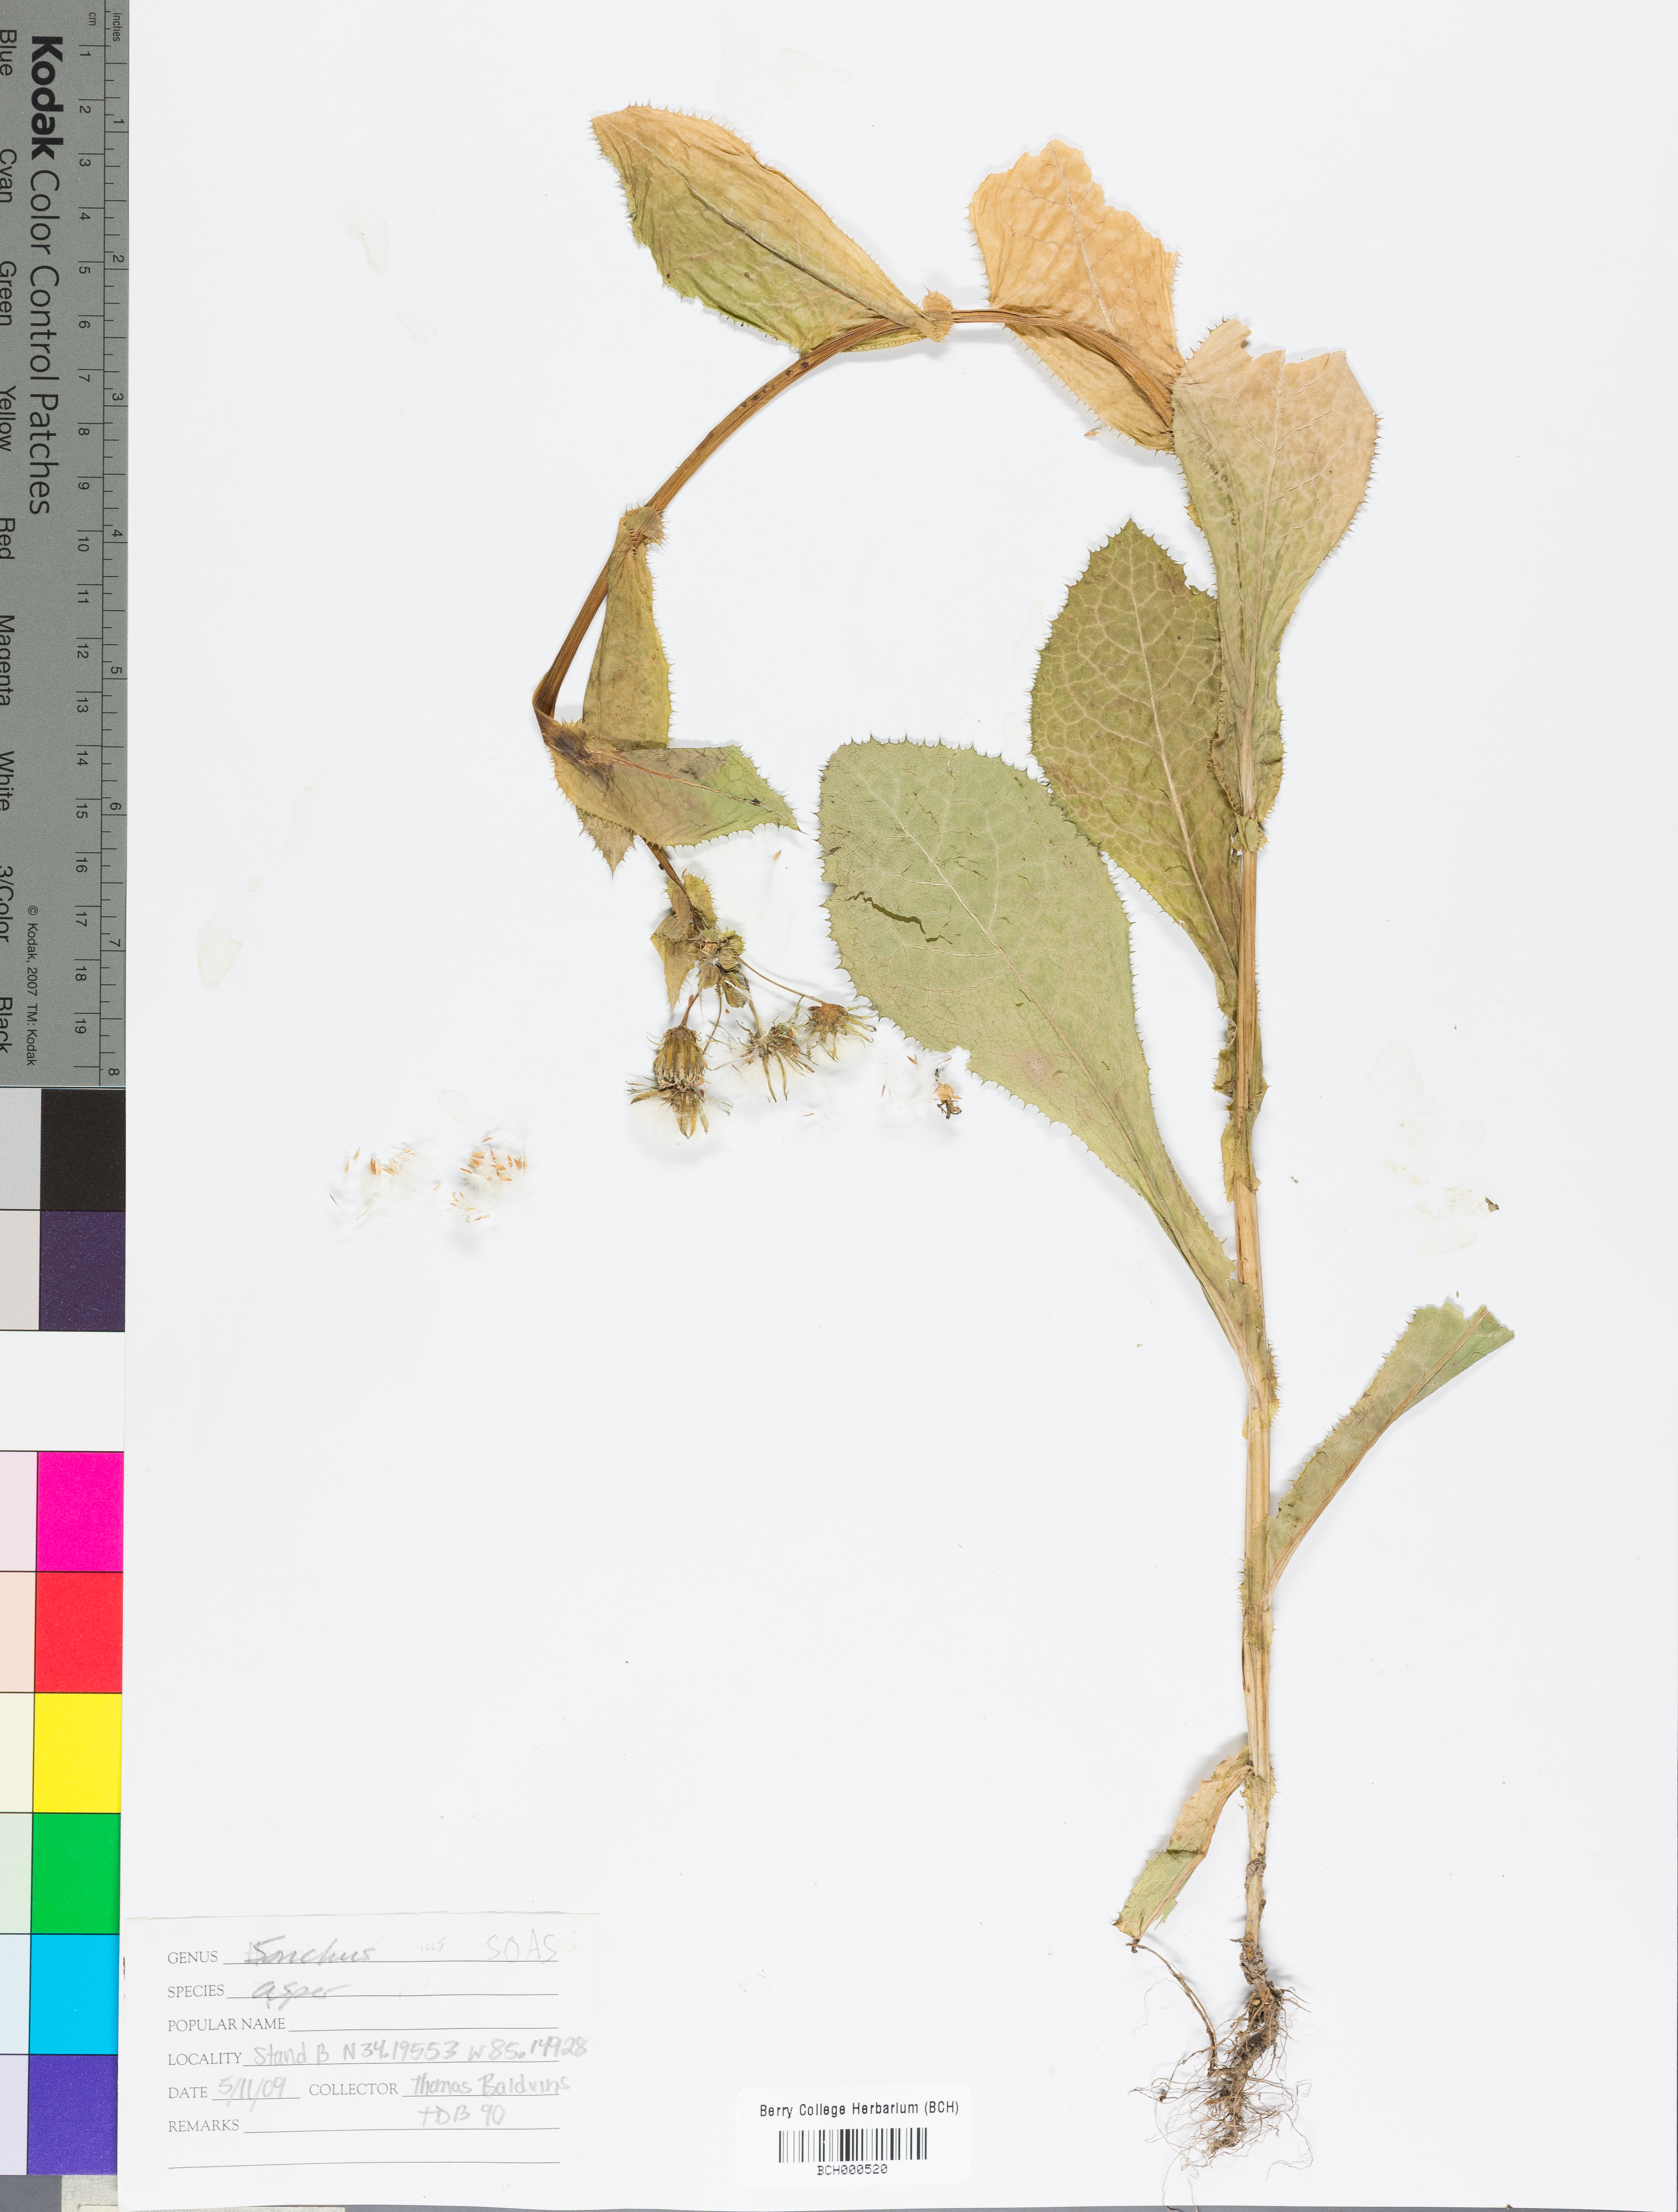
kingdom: Plantae
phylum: Tracheophyta
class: Magnoliopsida
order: Asterales
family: Asteraceae
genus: Sonchus
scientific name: Sonchus asper
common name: Prickly sow-thistle
